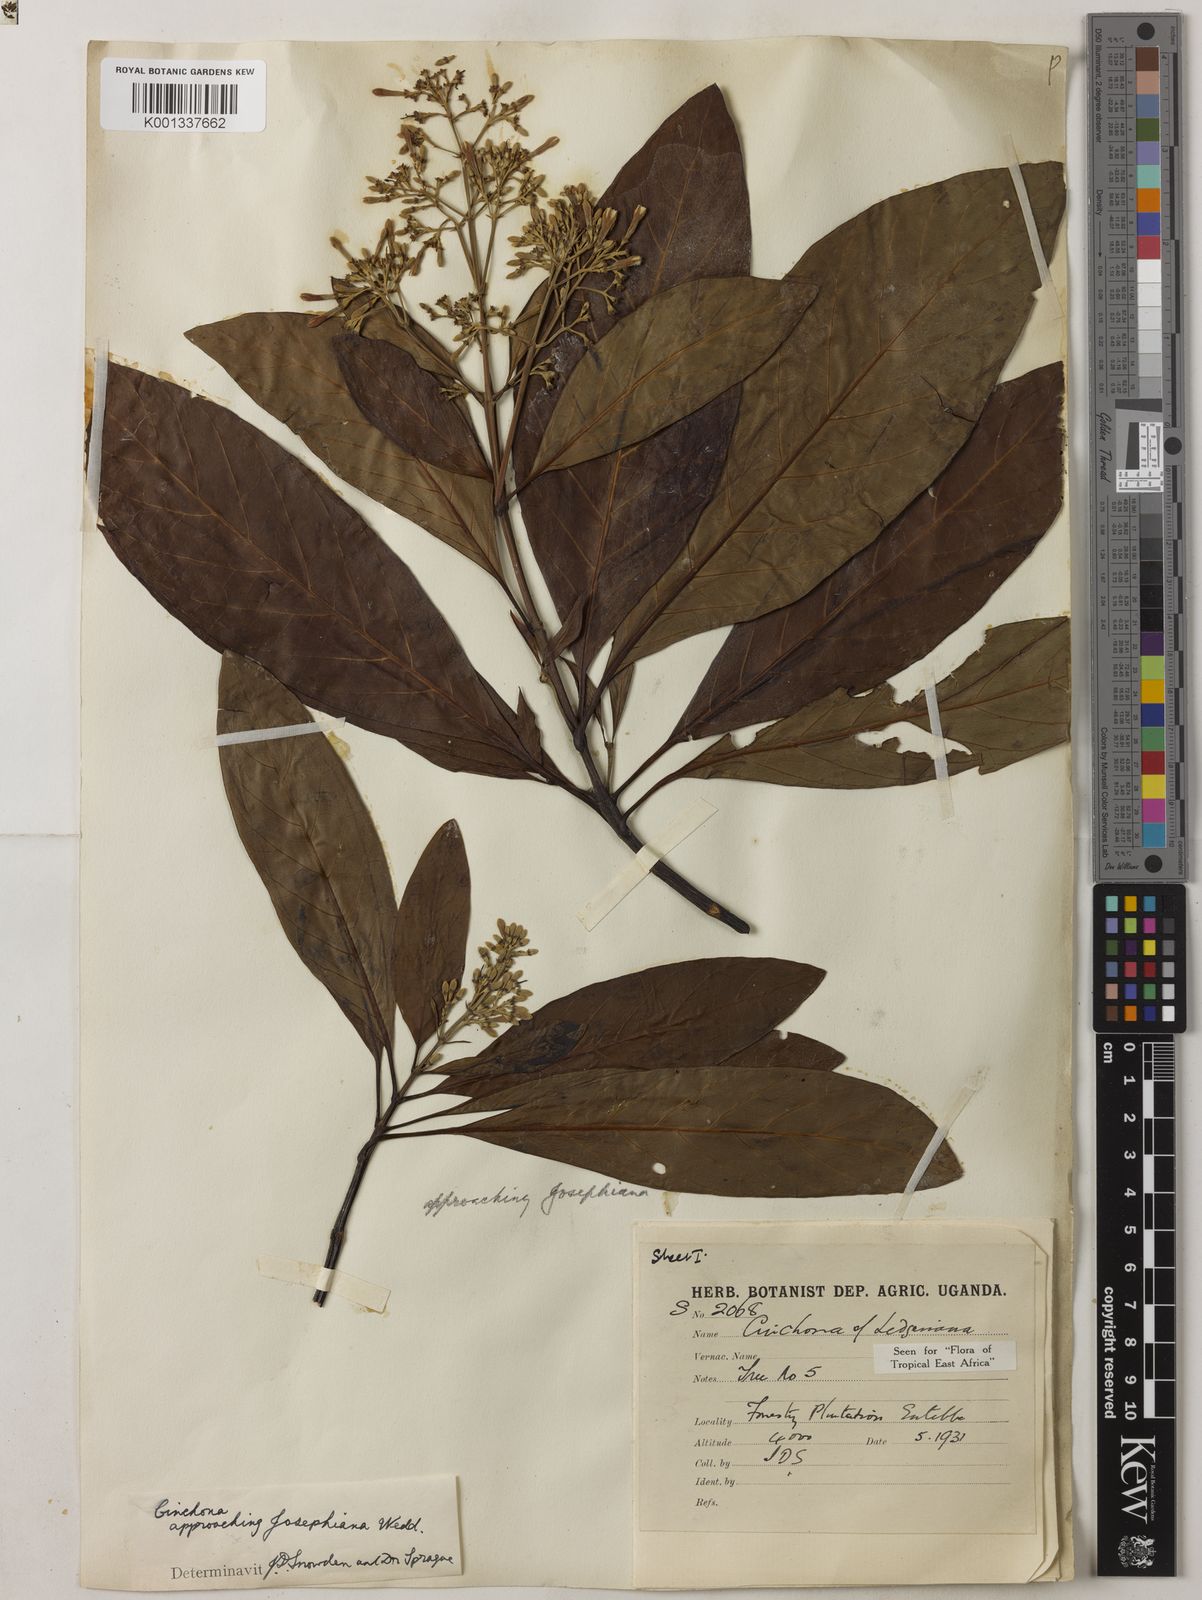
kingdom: Plantae
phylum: Tracheophyta
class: Magnoliopsida
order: Gentianales
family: Rubiaceae
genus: Cinchona
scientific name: Cinchona calisaya
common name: Ledgerbark
